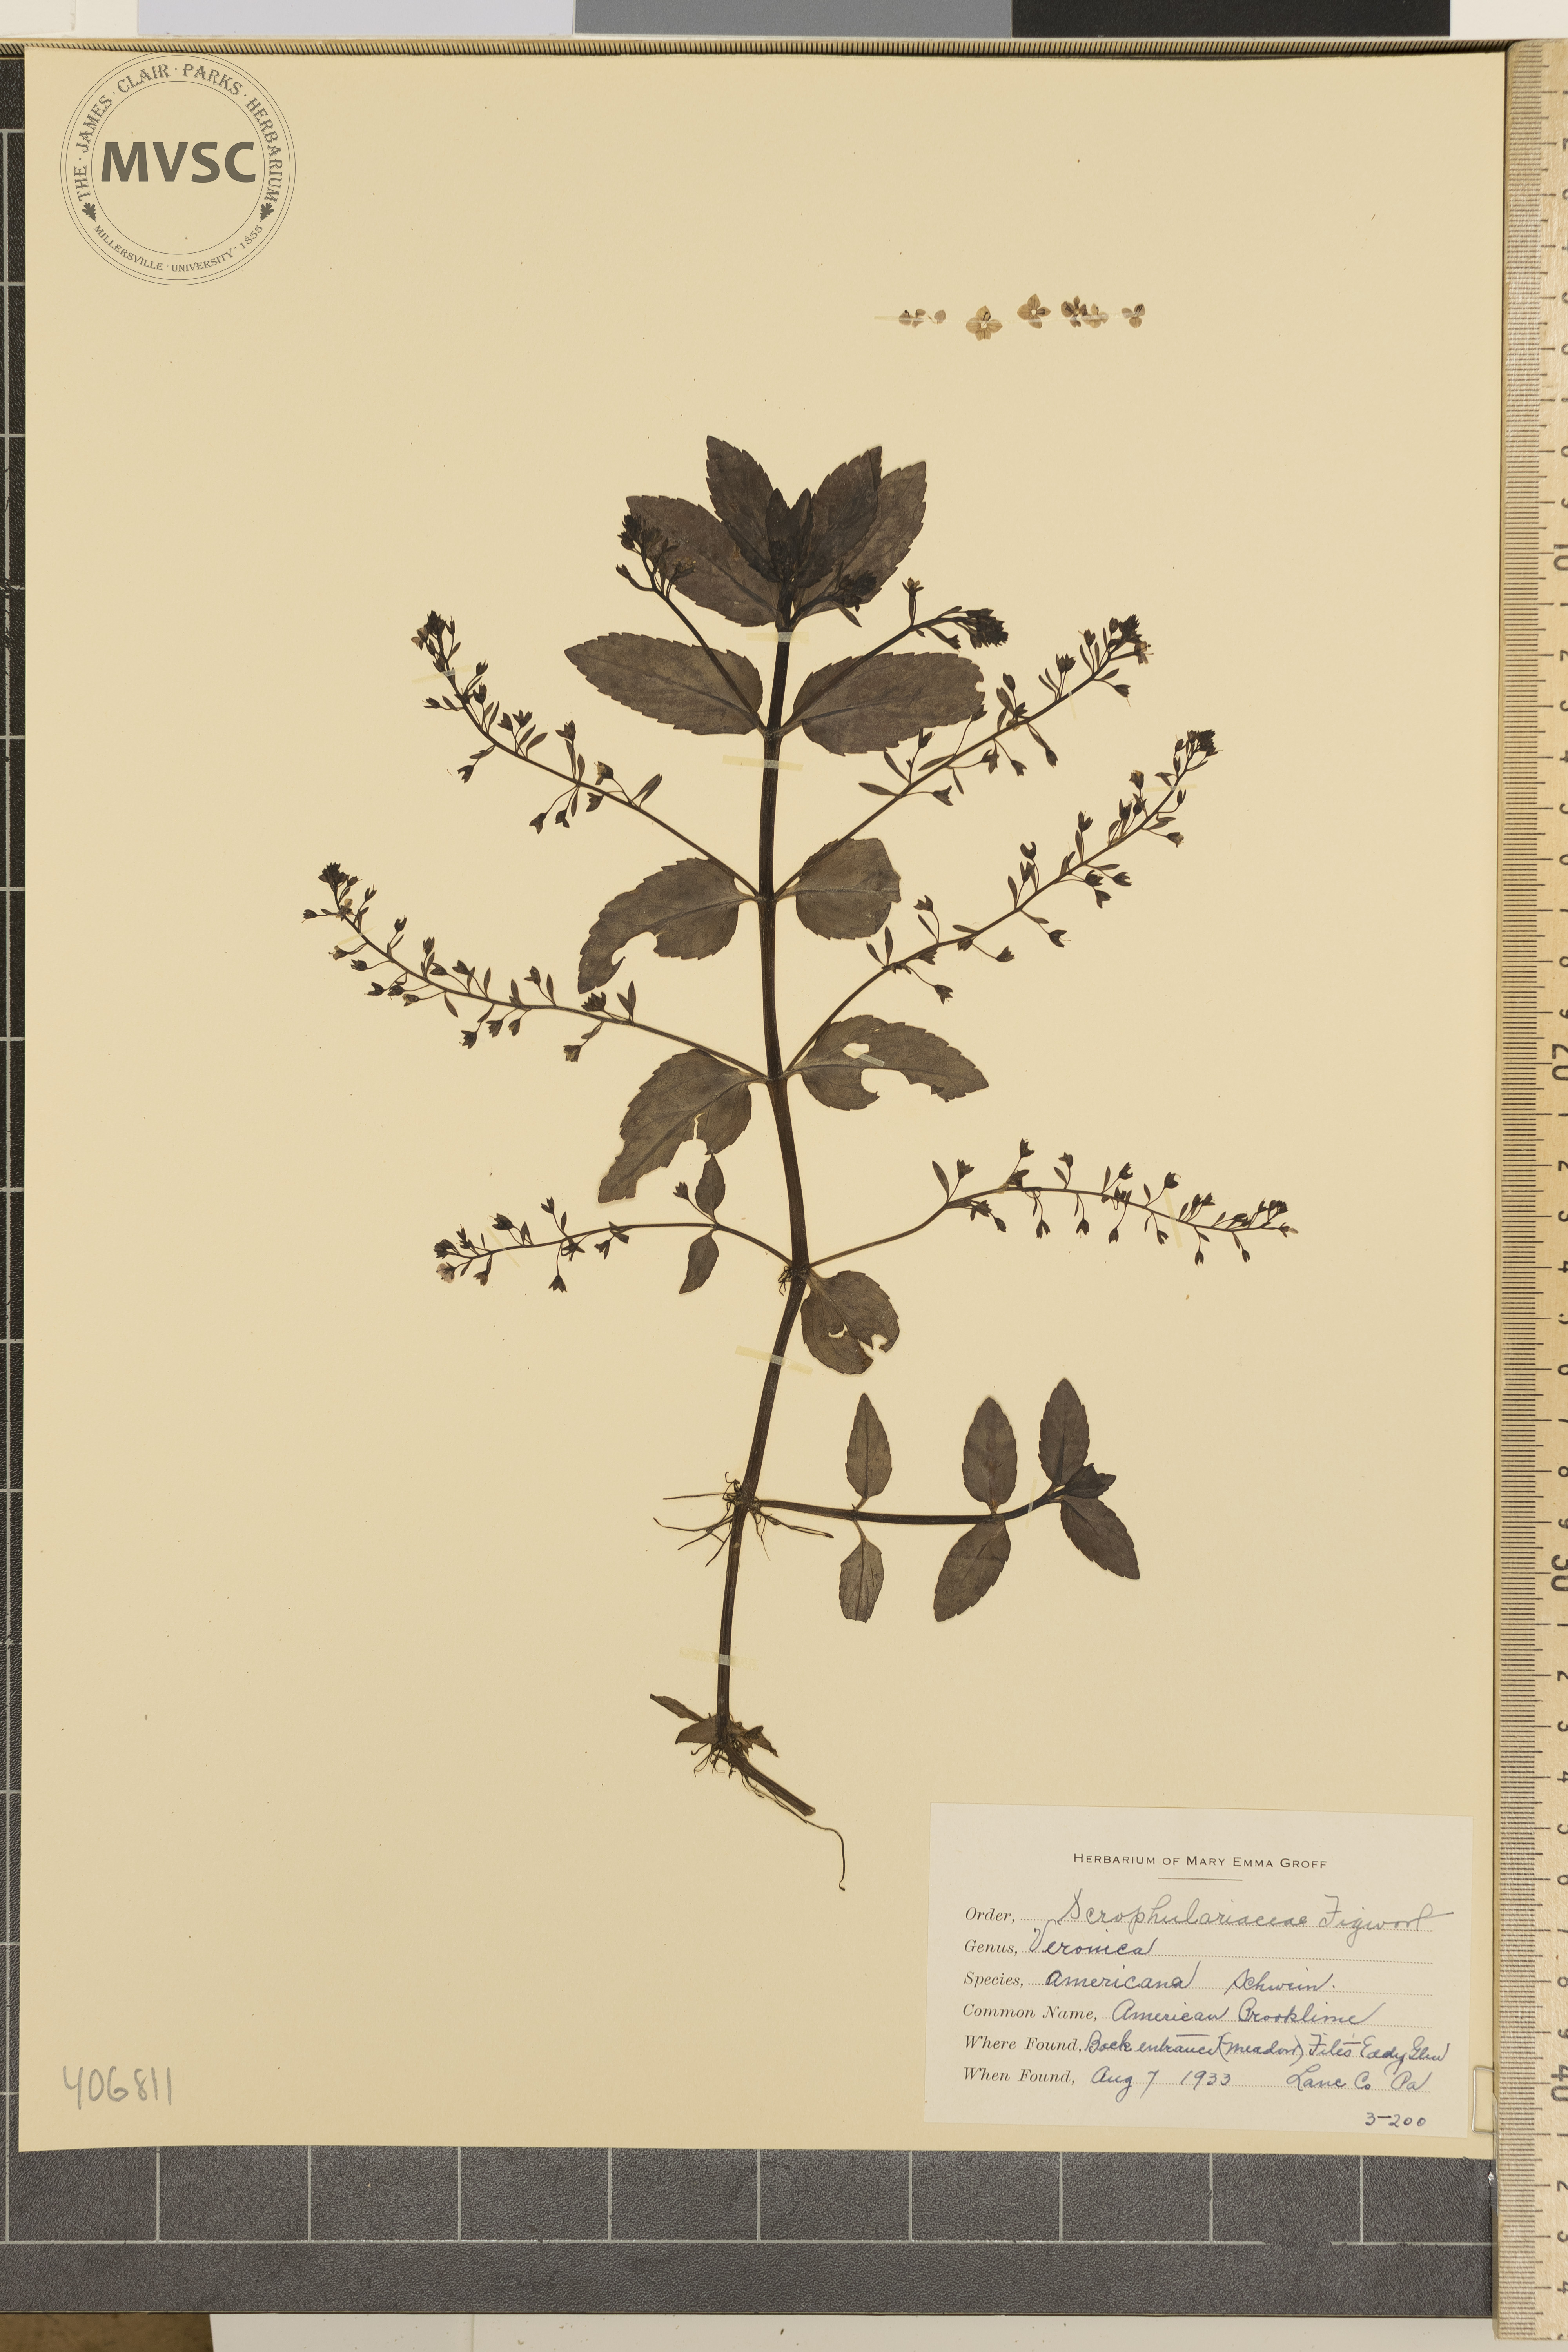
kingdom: Plantae
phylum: Tracheophyta
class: Magnoliopsida
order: Lamiales
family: Plantaginaceae
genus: Veronica
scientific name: Veronica americana
